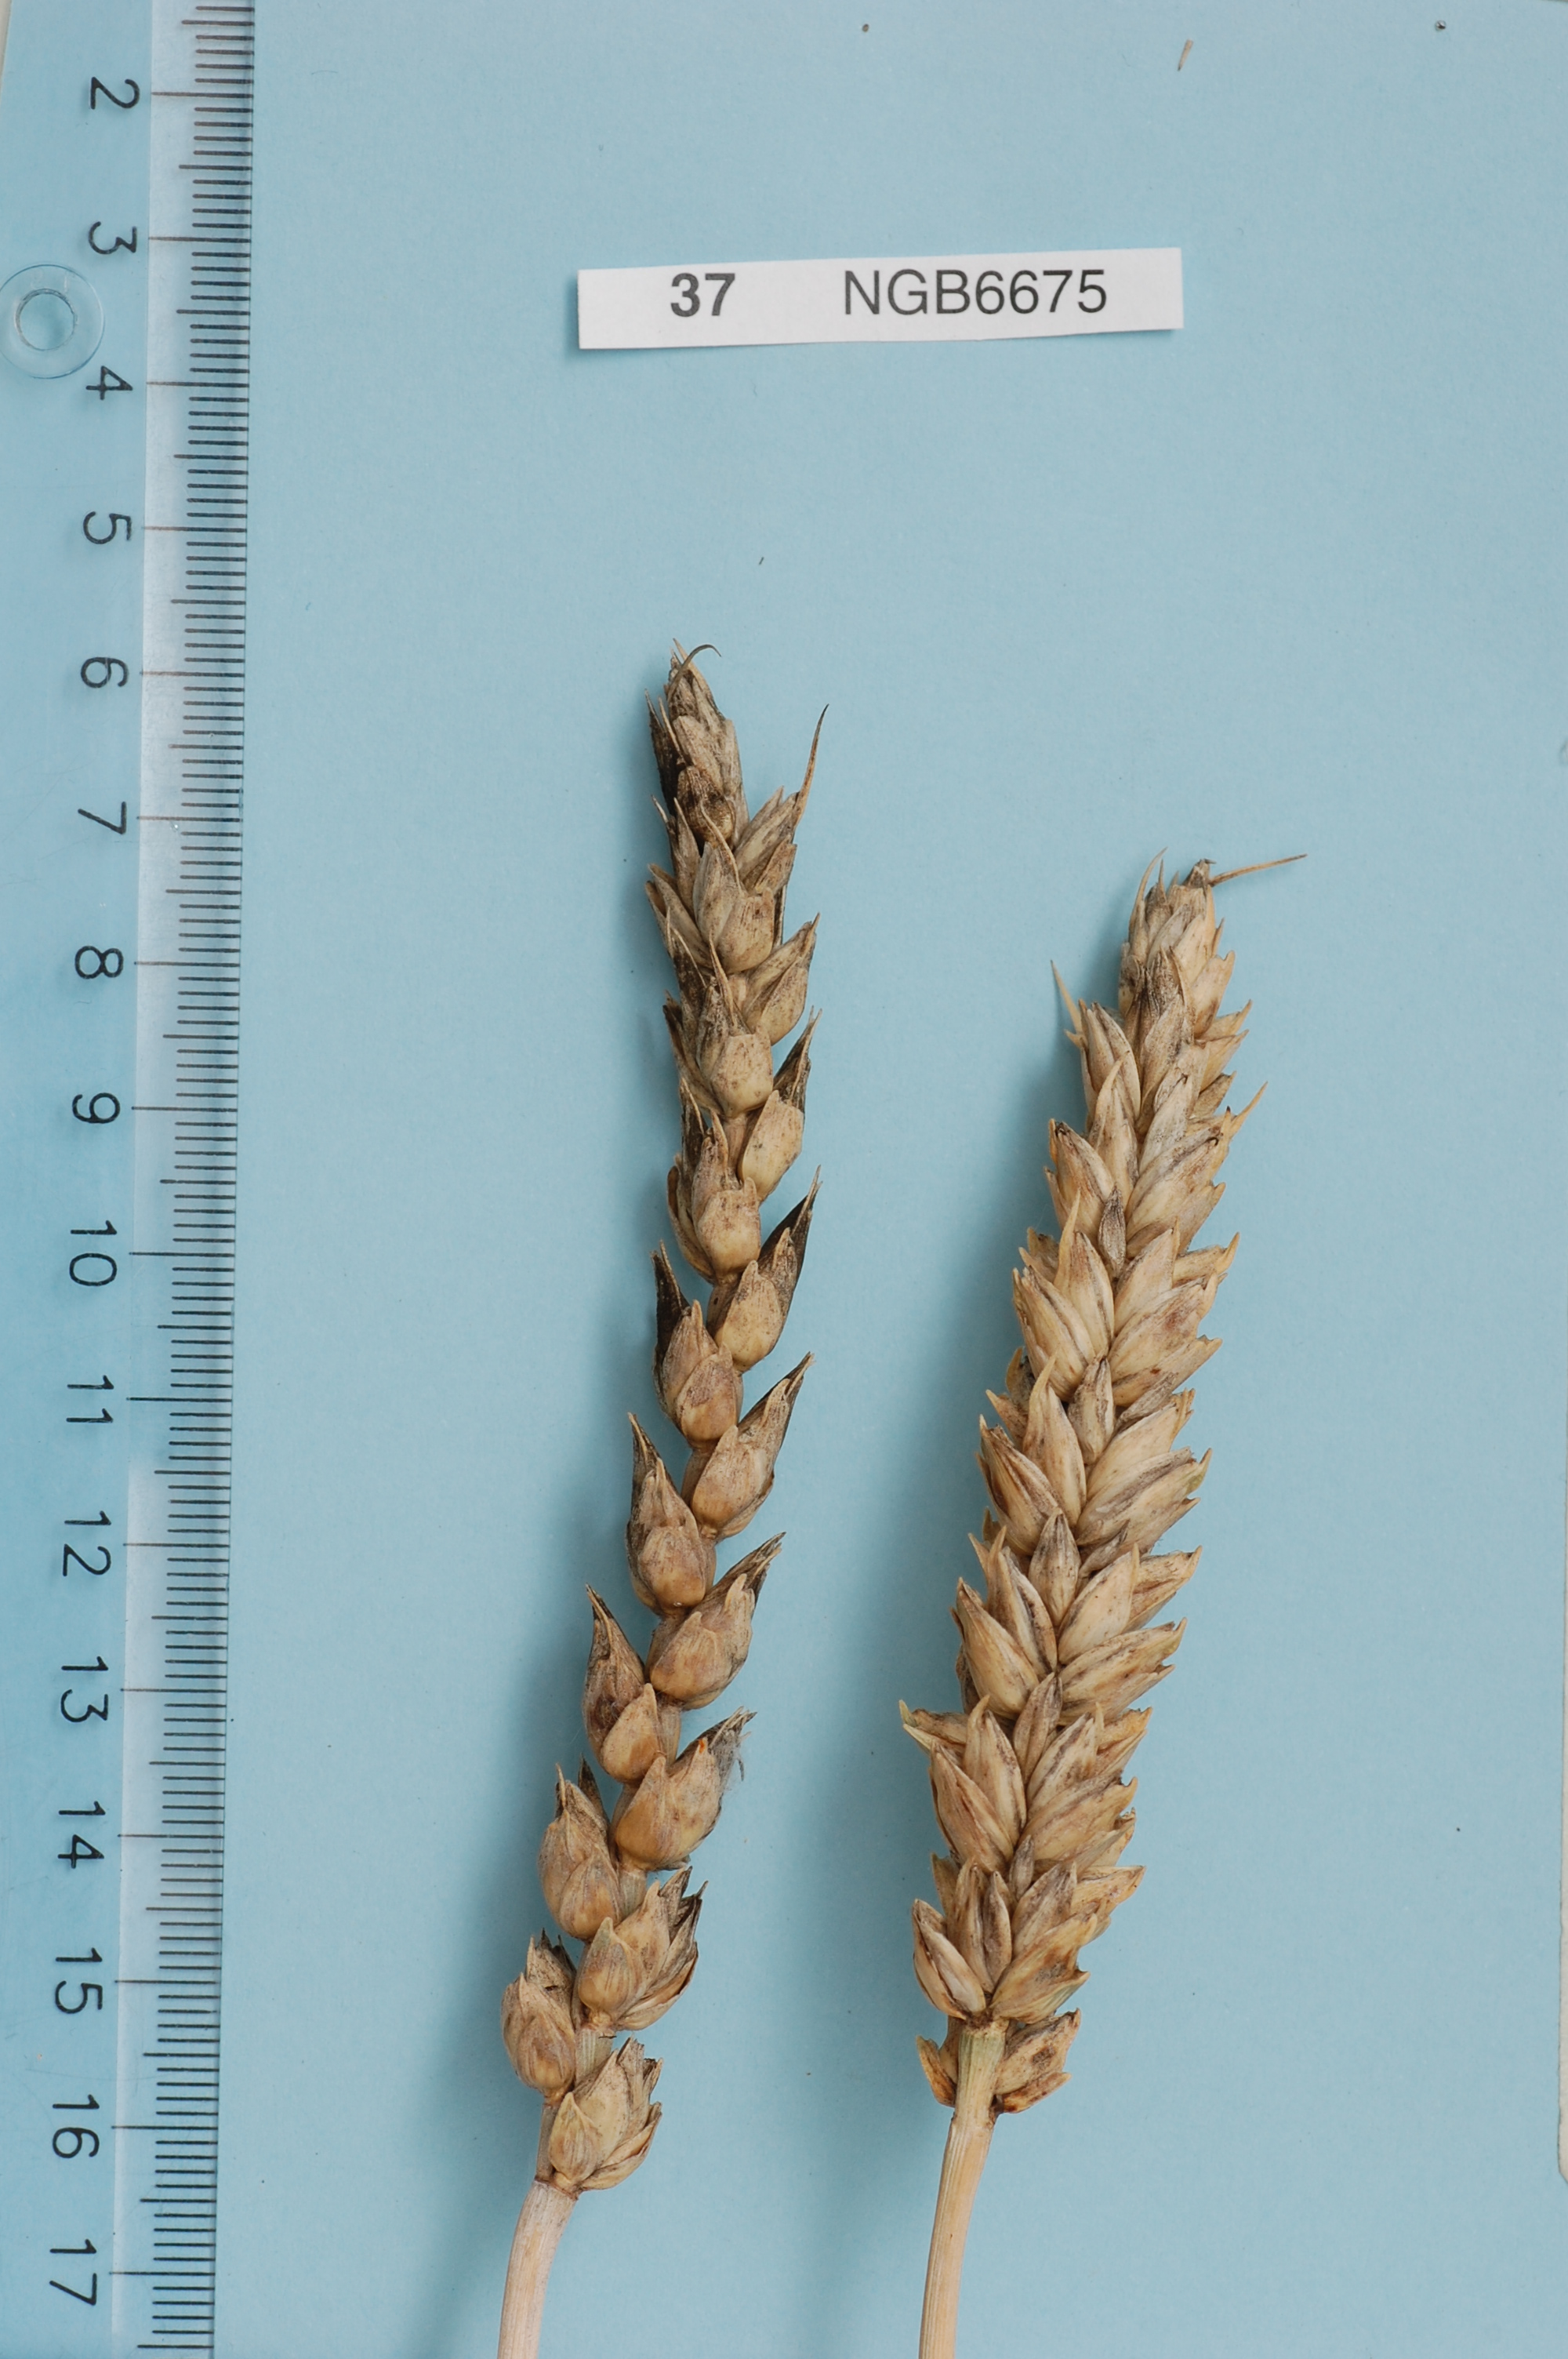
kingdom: Plantae
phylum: Tracheophyta
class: Liliopsida
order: Poales
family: Poaceae
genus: Triticum
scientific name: Triticum aestivum
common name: Common wheat
